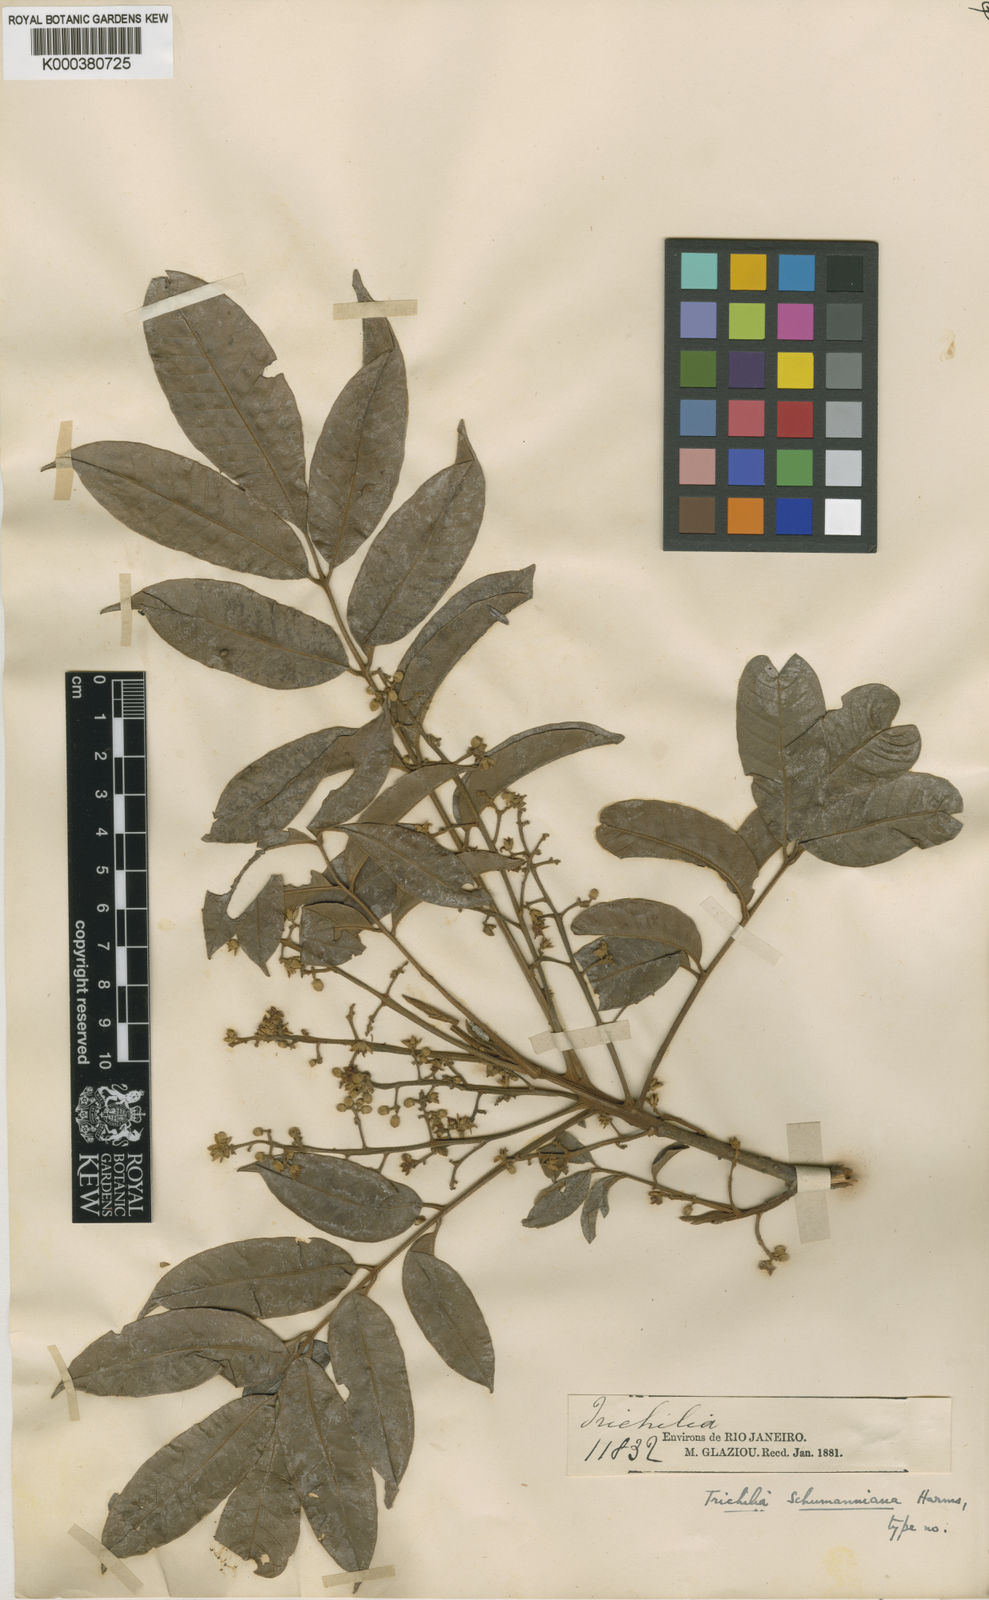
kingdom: Plantae
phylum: Tracheophyta
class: Magnoliopsida
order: Sapindales
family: Meliaceae
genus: Trichilia
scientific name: Trichilia lepidota
